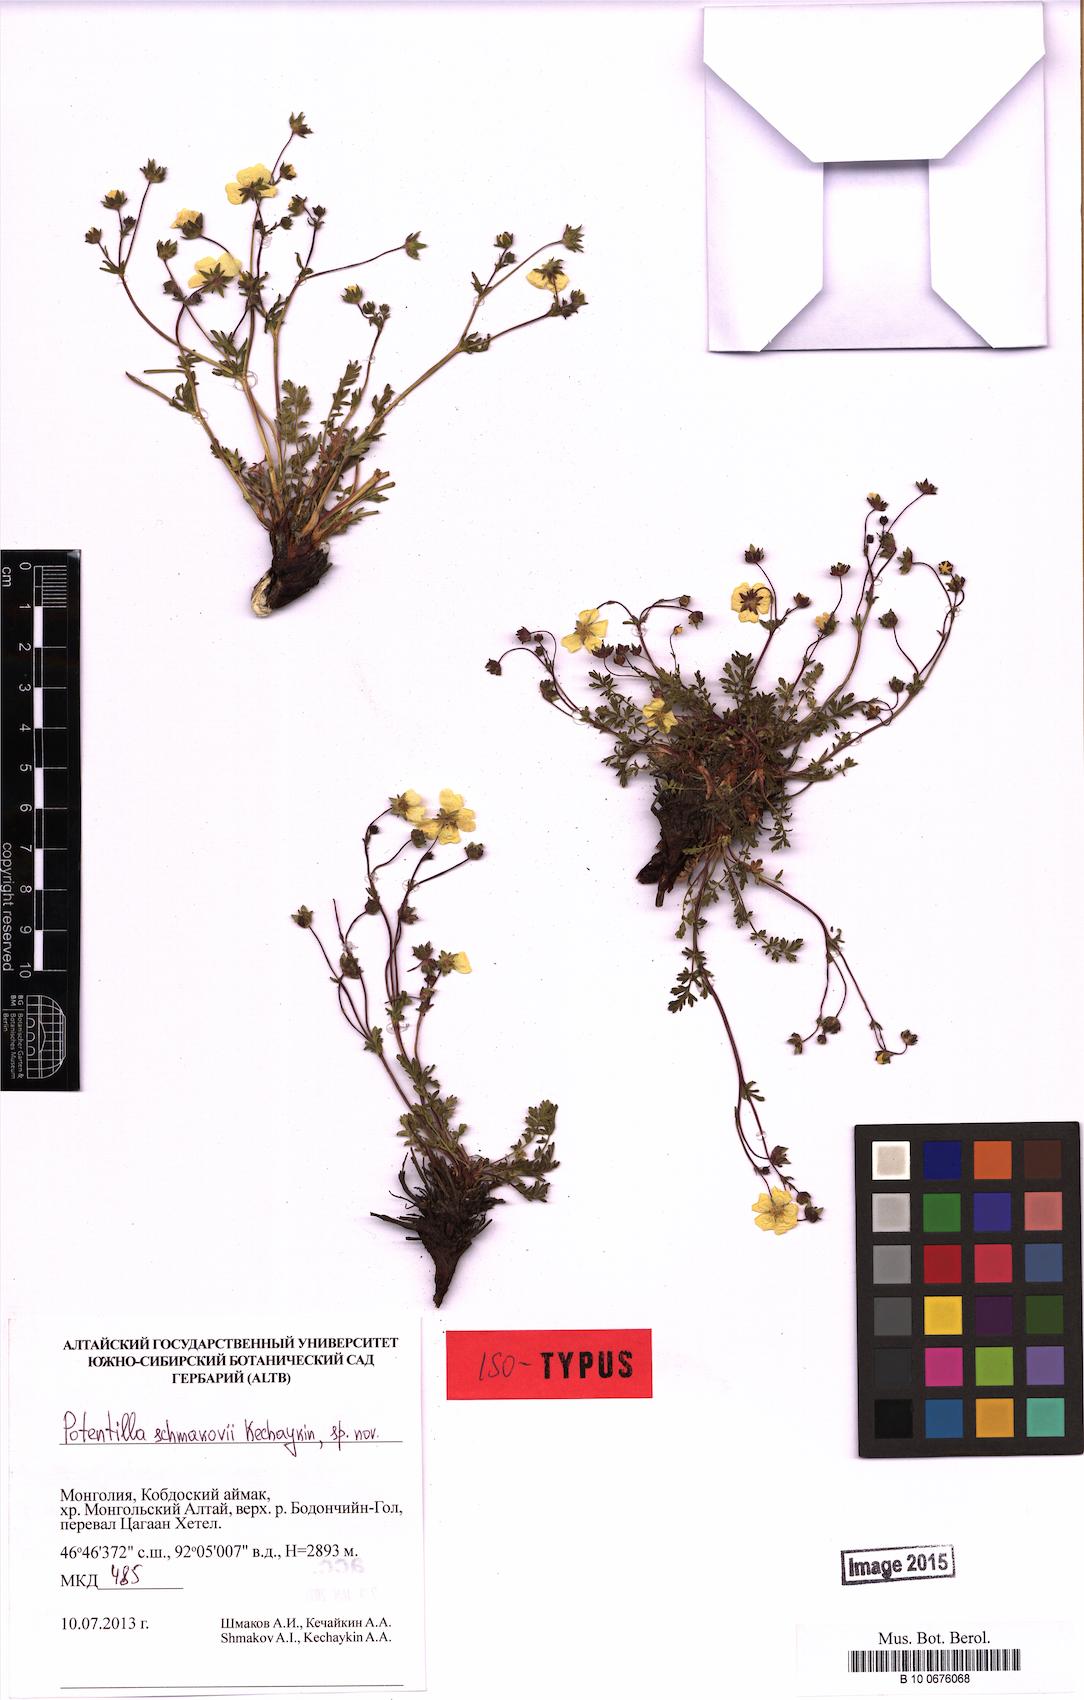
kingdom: Plantae
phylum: Tracheophyta
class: Magnoliopsida
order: Rosales
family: Rosaceae
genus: Potentilla
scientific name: Potentilla schmakovii
